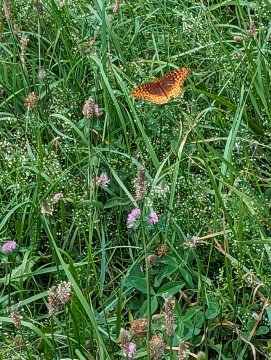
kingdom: Animalia
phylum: Arthropoda
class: Insecta
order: Lepidoptera
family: Nymphalidae
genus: Speyeria
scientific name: Speyeria cybele
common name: Great Spangled Fritillary
